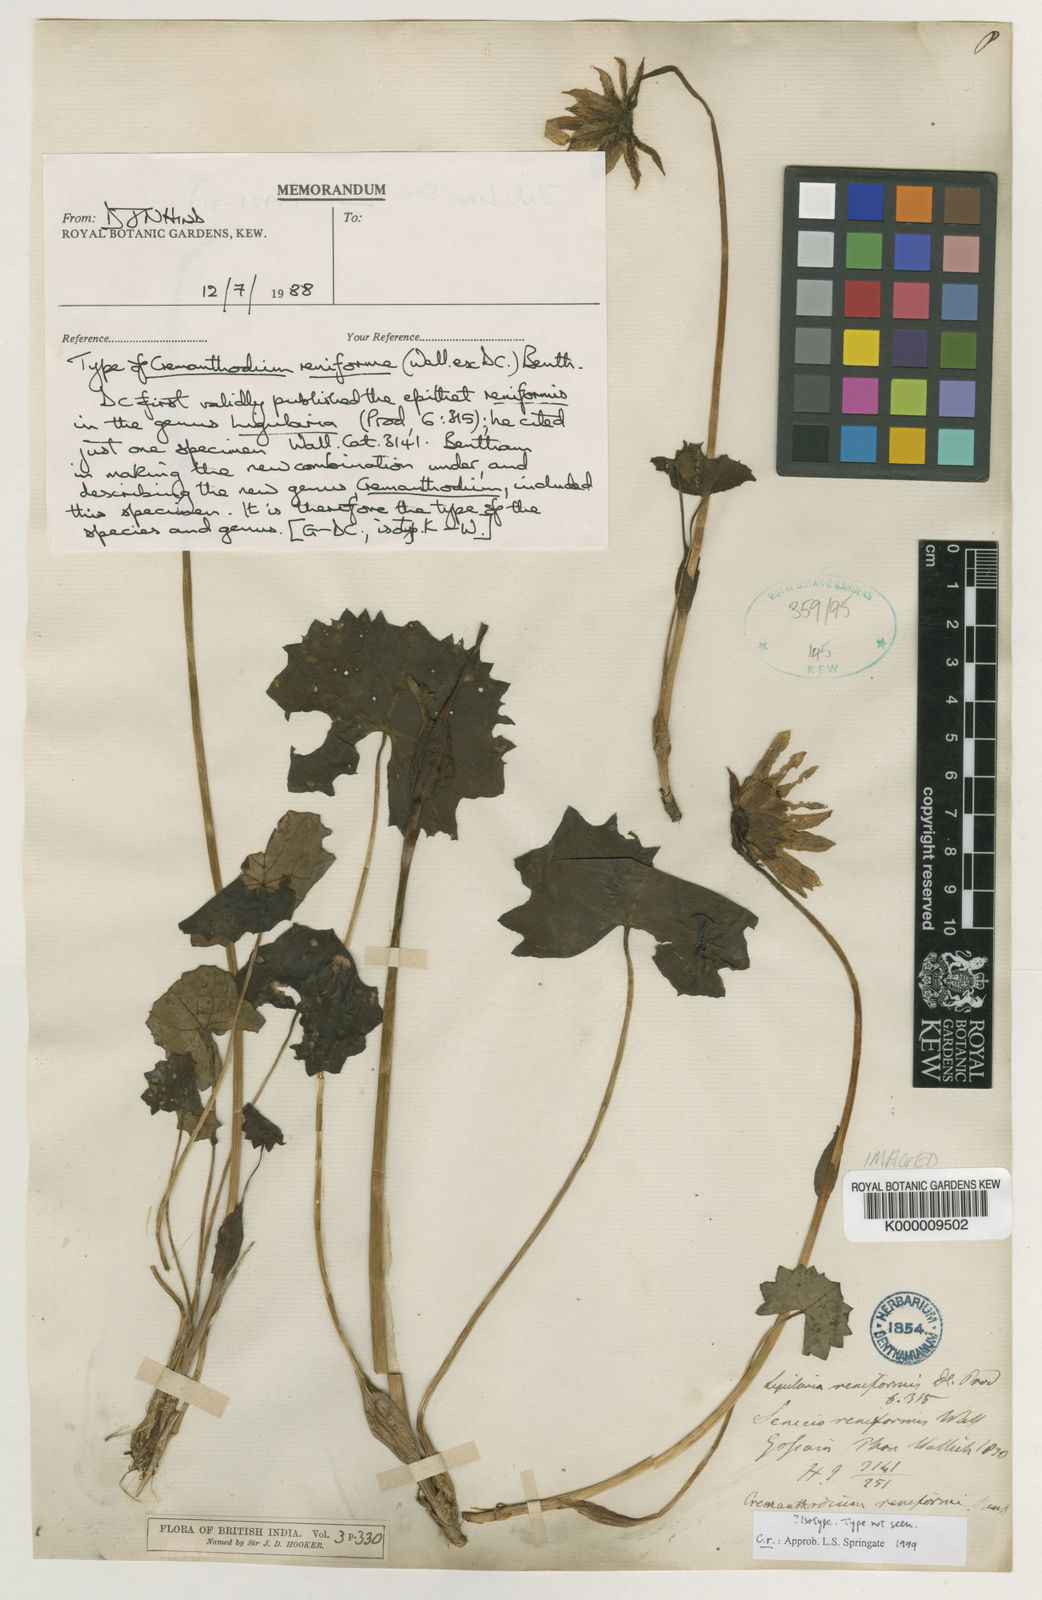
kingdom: Plantae
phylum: Tracheophyta
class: Magnoliopsida
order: Asterales
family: Asteraceae
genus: Cremanthodium
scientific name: Cremanthodium reniforme
